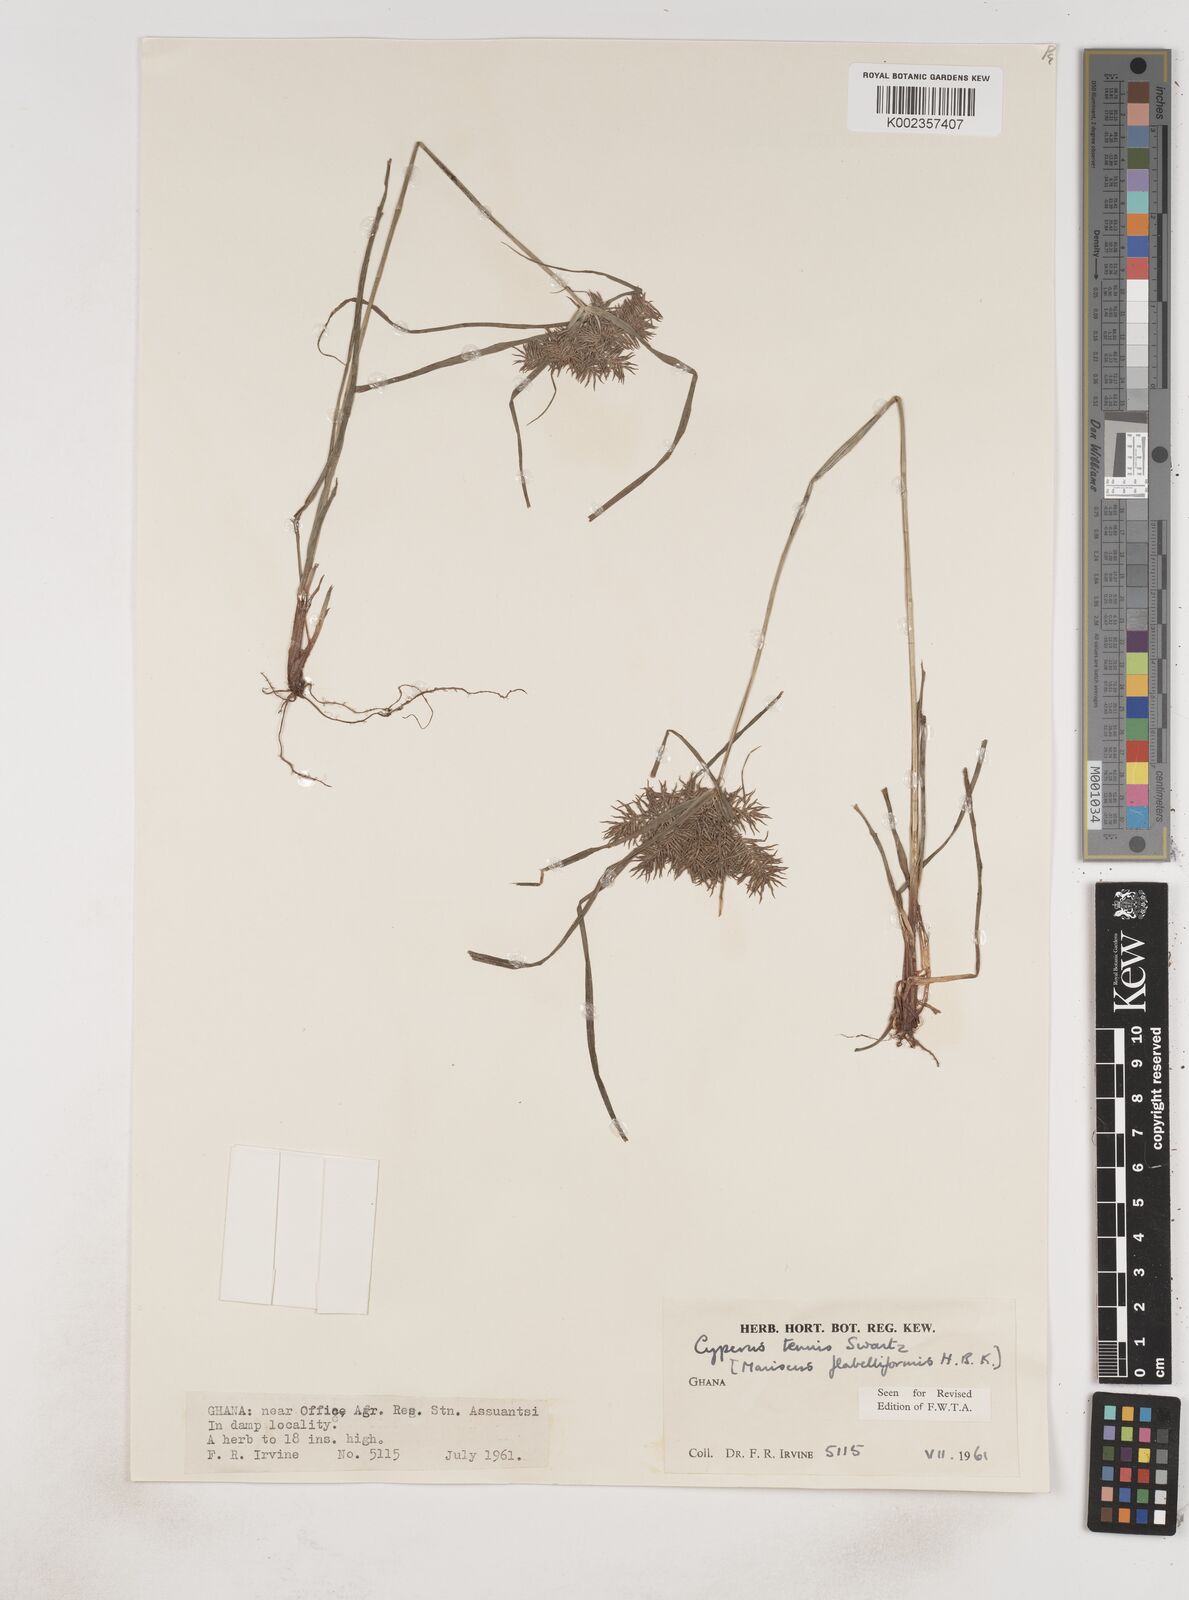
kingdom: Plantae
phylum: Tracheophyta
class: Liliopsida
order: Poales
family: Cyperaceae
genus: Cyperus
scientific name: Cyperus tenuis
